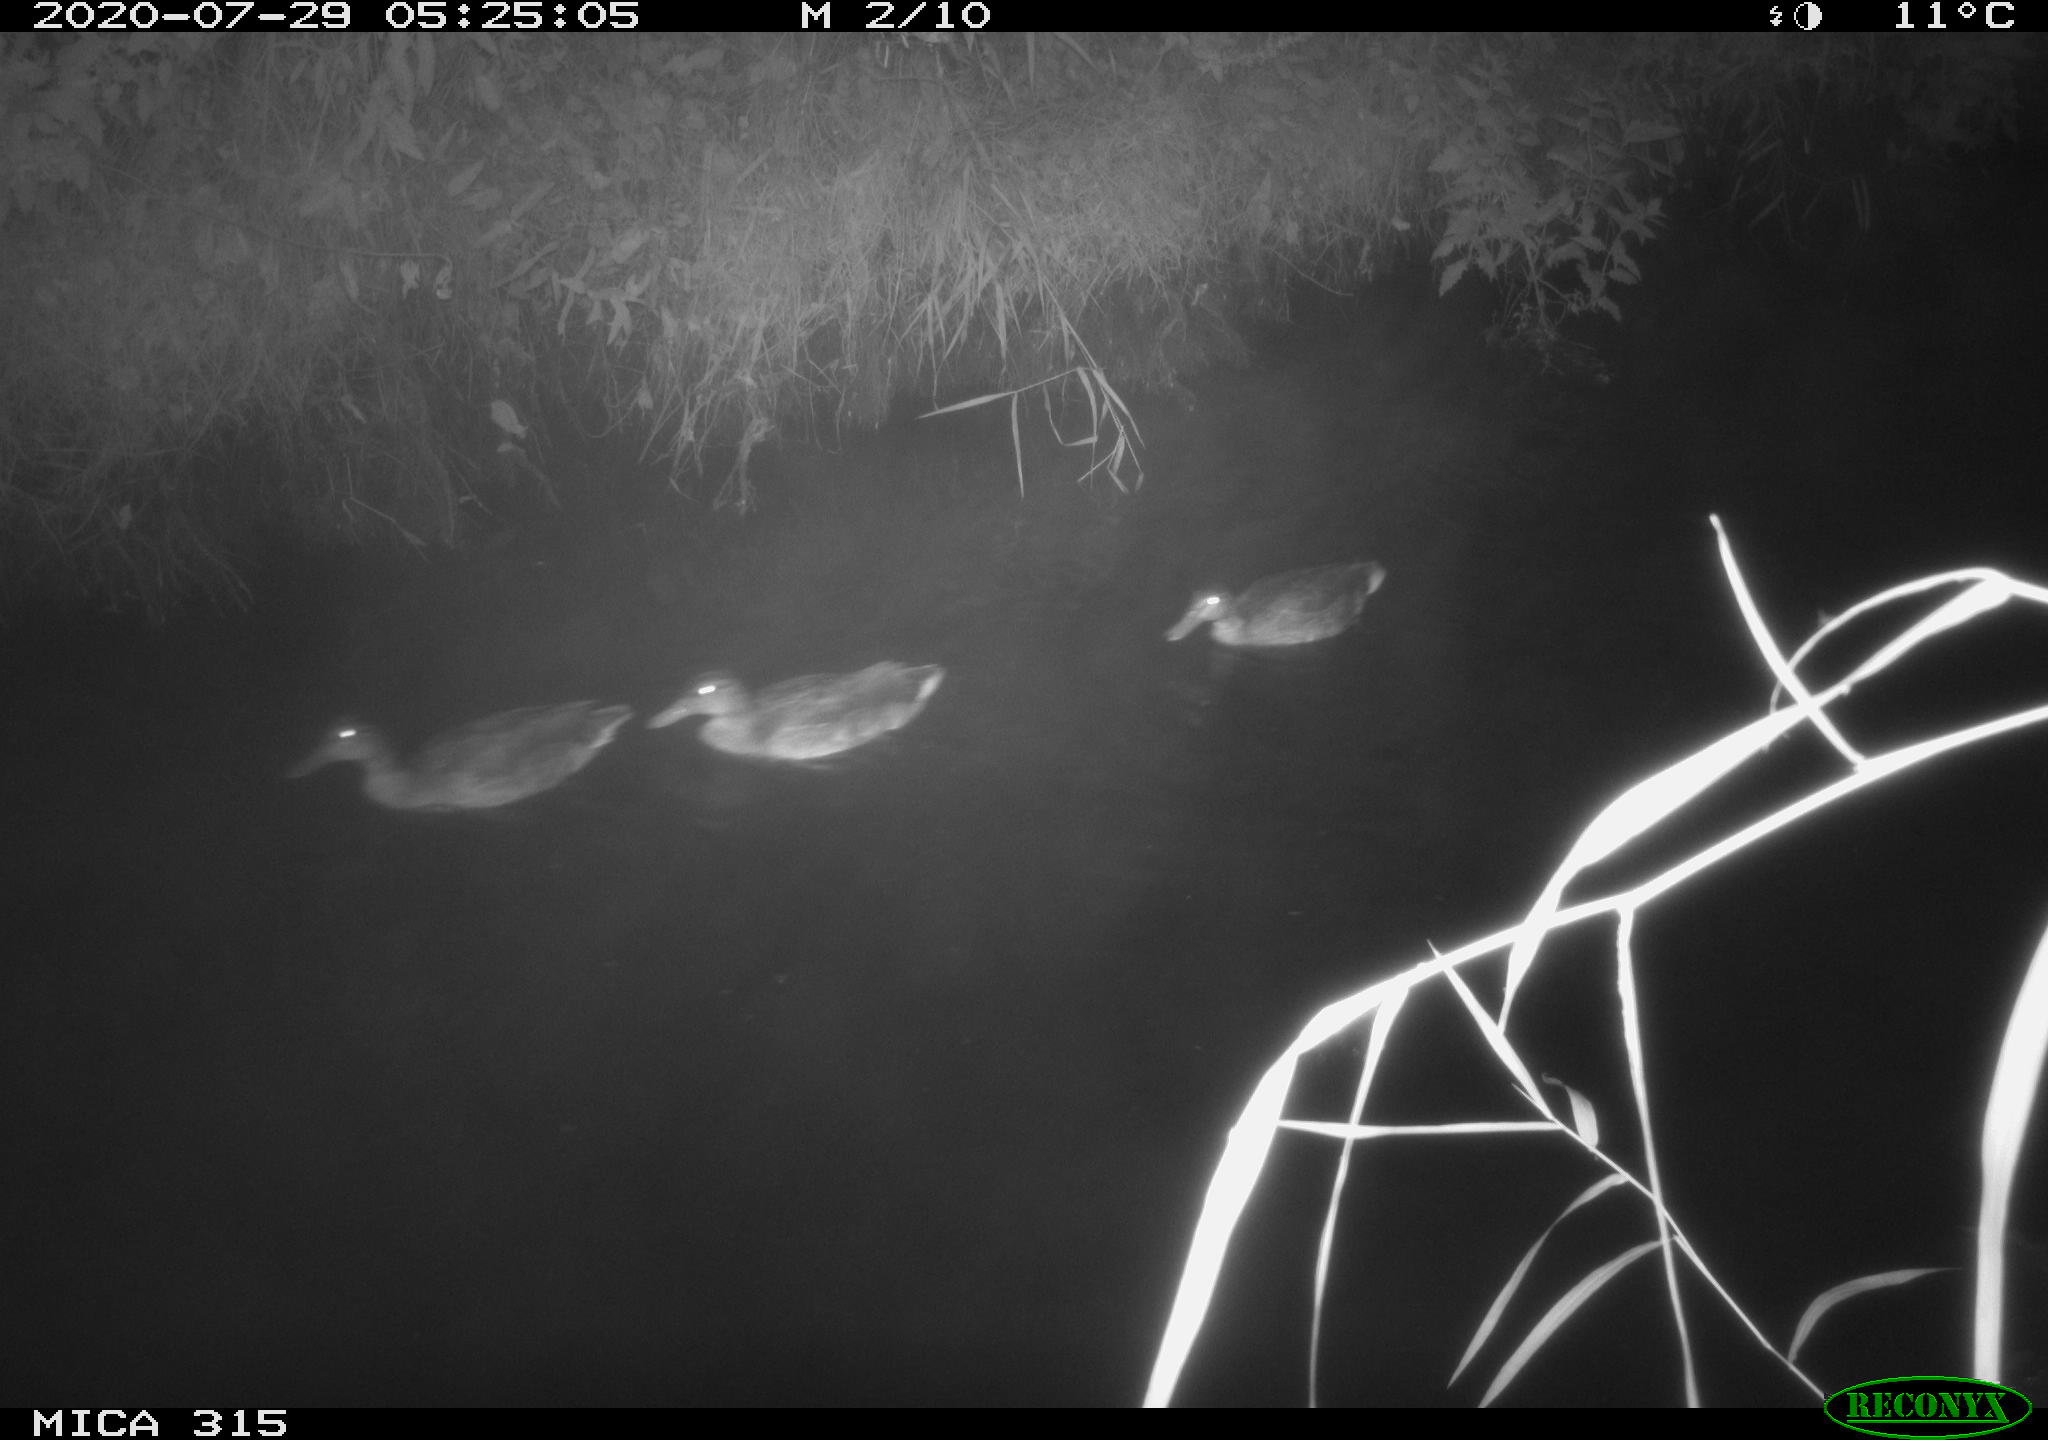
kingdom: Animalia
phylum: Chordata
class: Aves
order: Anseriformes
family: Anatidae
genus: Anas
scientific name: Anas platyrhynchos
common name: Mallard
